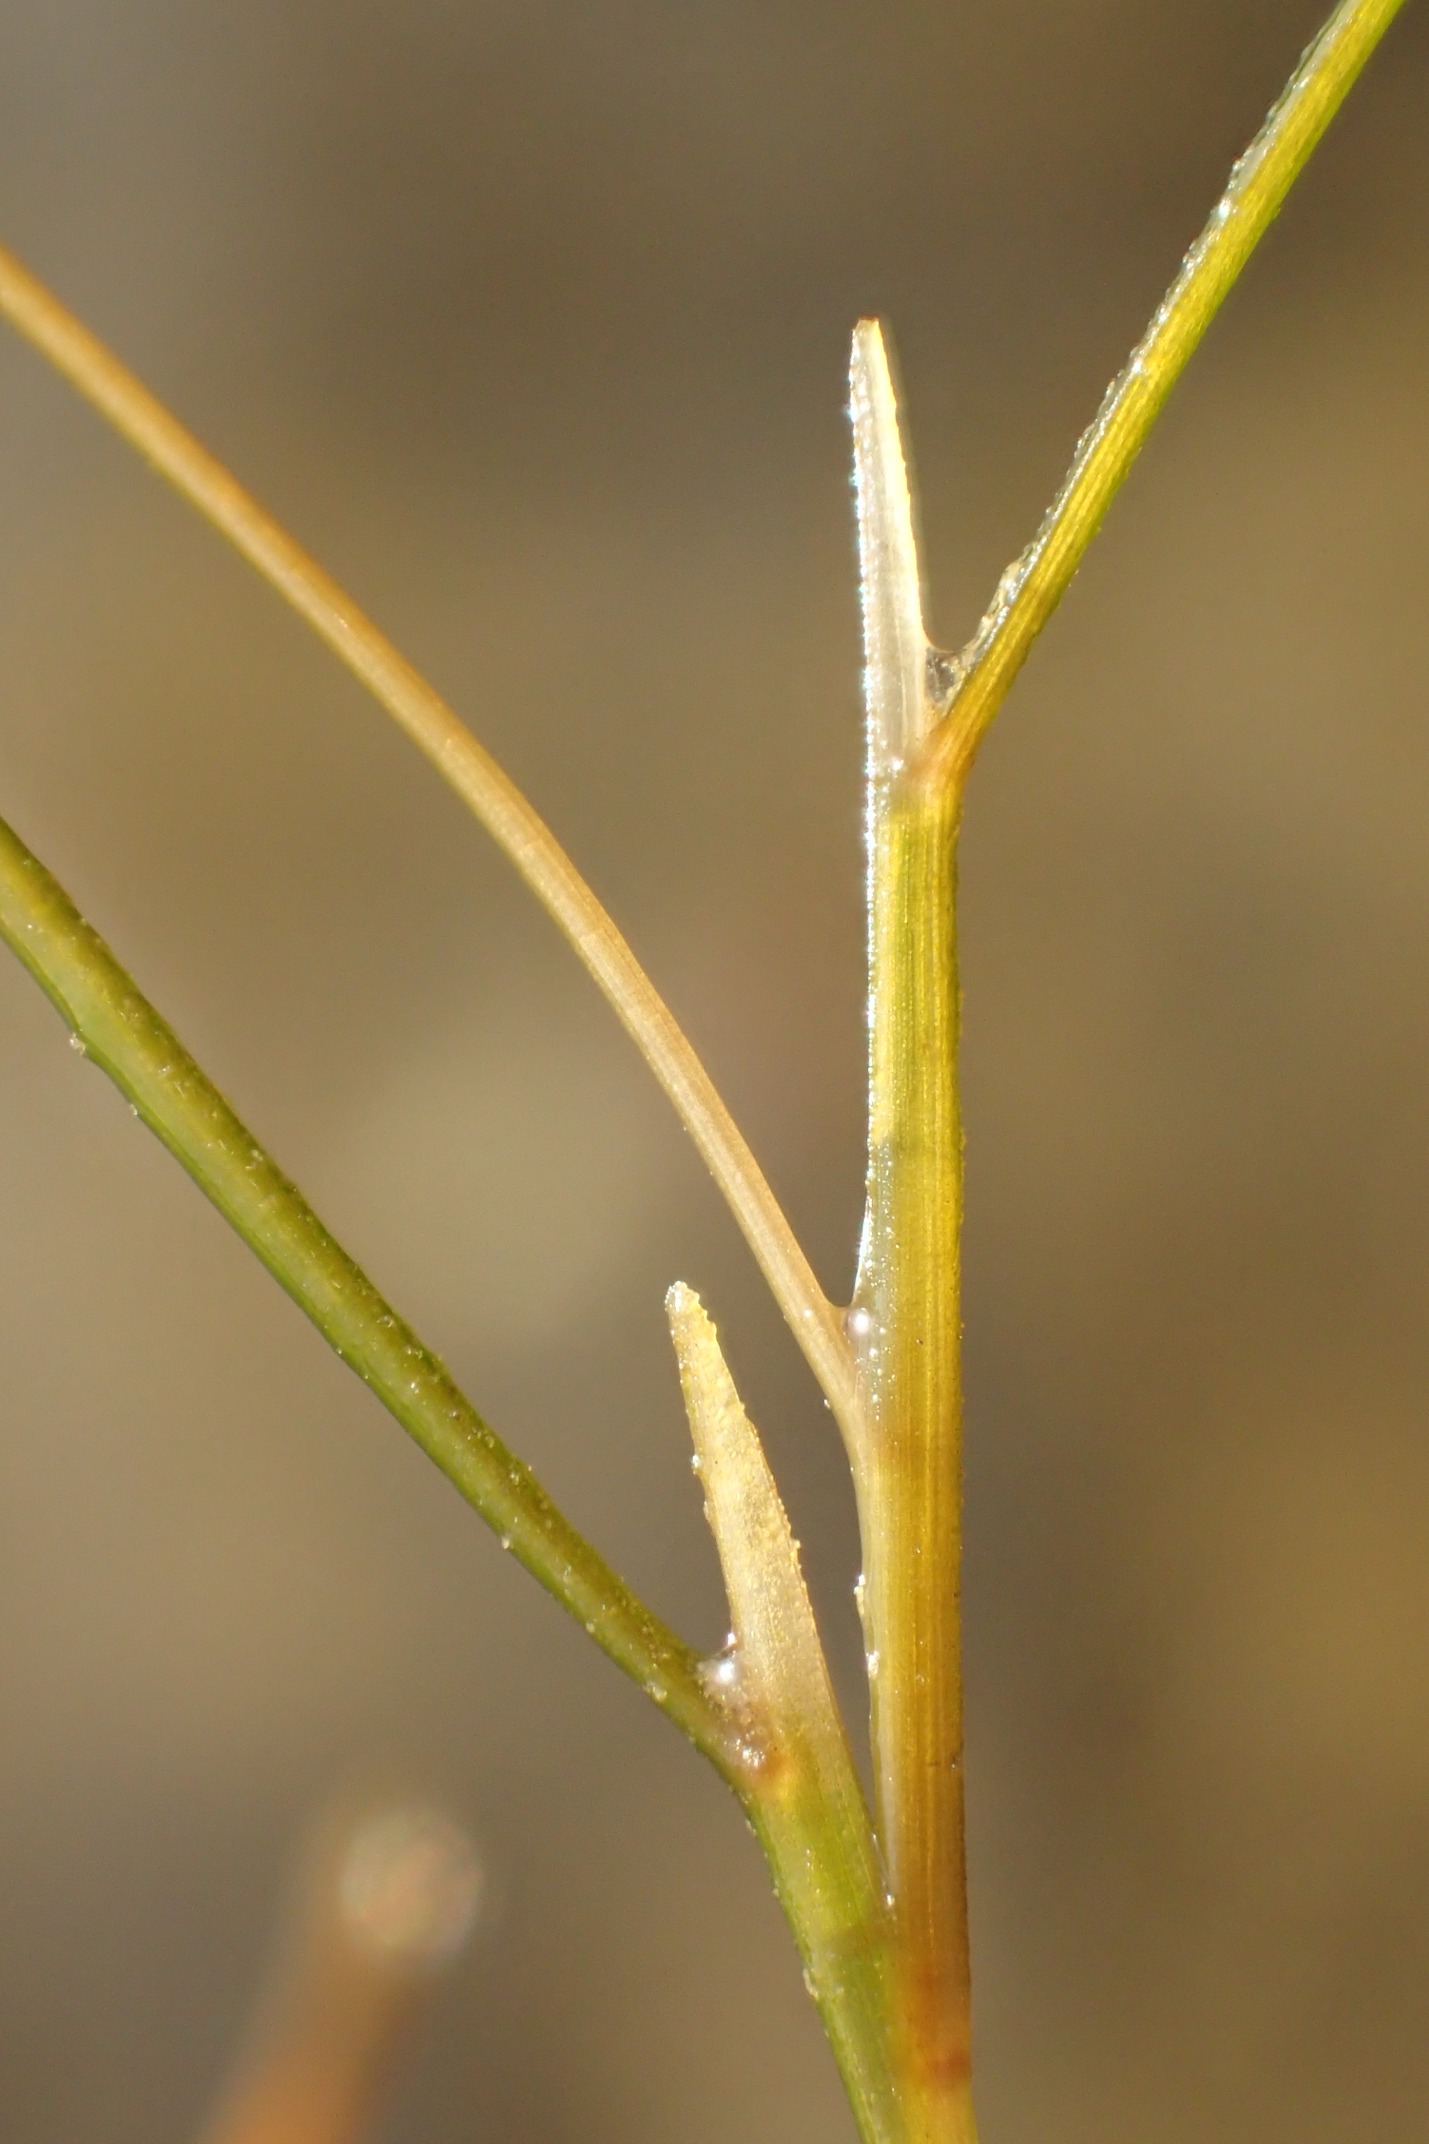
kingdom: Plantae
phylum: Tracheophyta
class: Liliopsida
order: Alismatales
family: Potamogetonaceae
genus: Stuckenia
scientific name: Stuckenia pectinata
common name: Børstebladet vandaks
